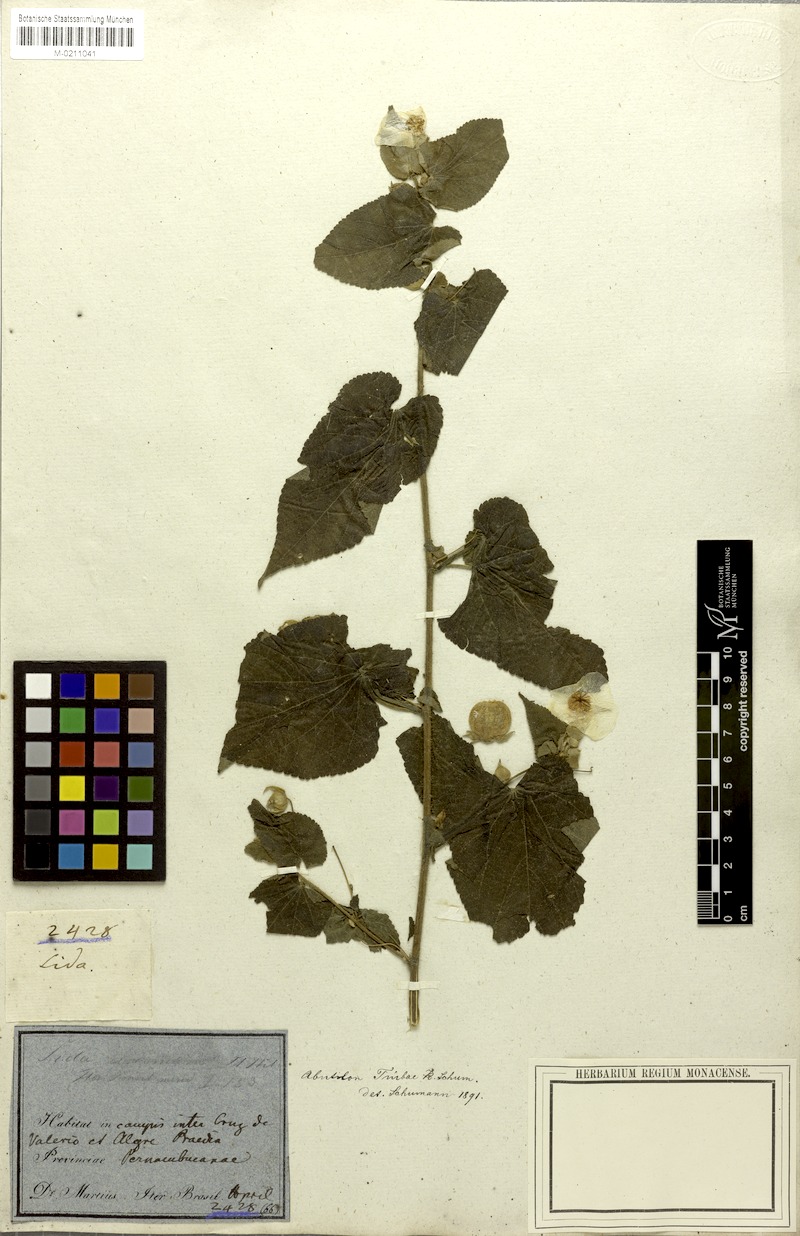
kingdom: Plantae
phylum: Tracheophyta
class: Magnoliopsida
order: Malvales
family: Malvaceae
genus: Herissantia
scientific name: Herissantia tiubae
